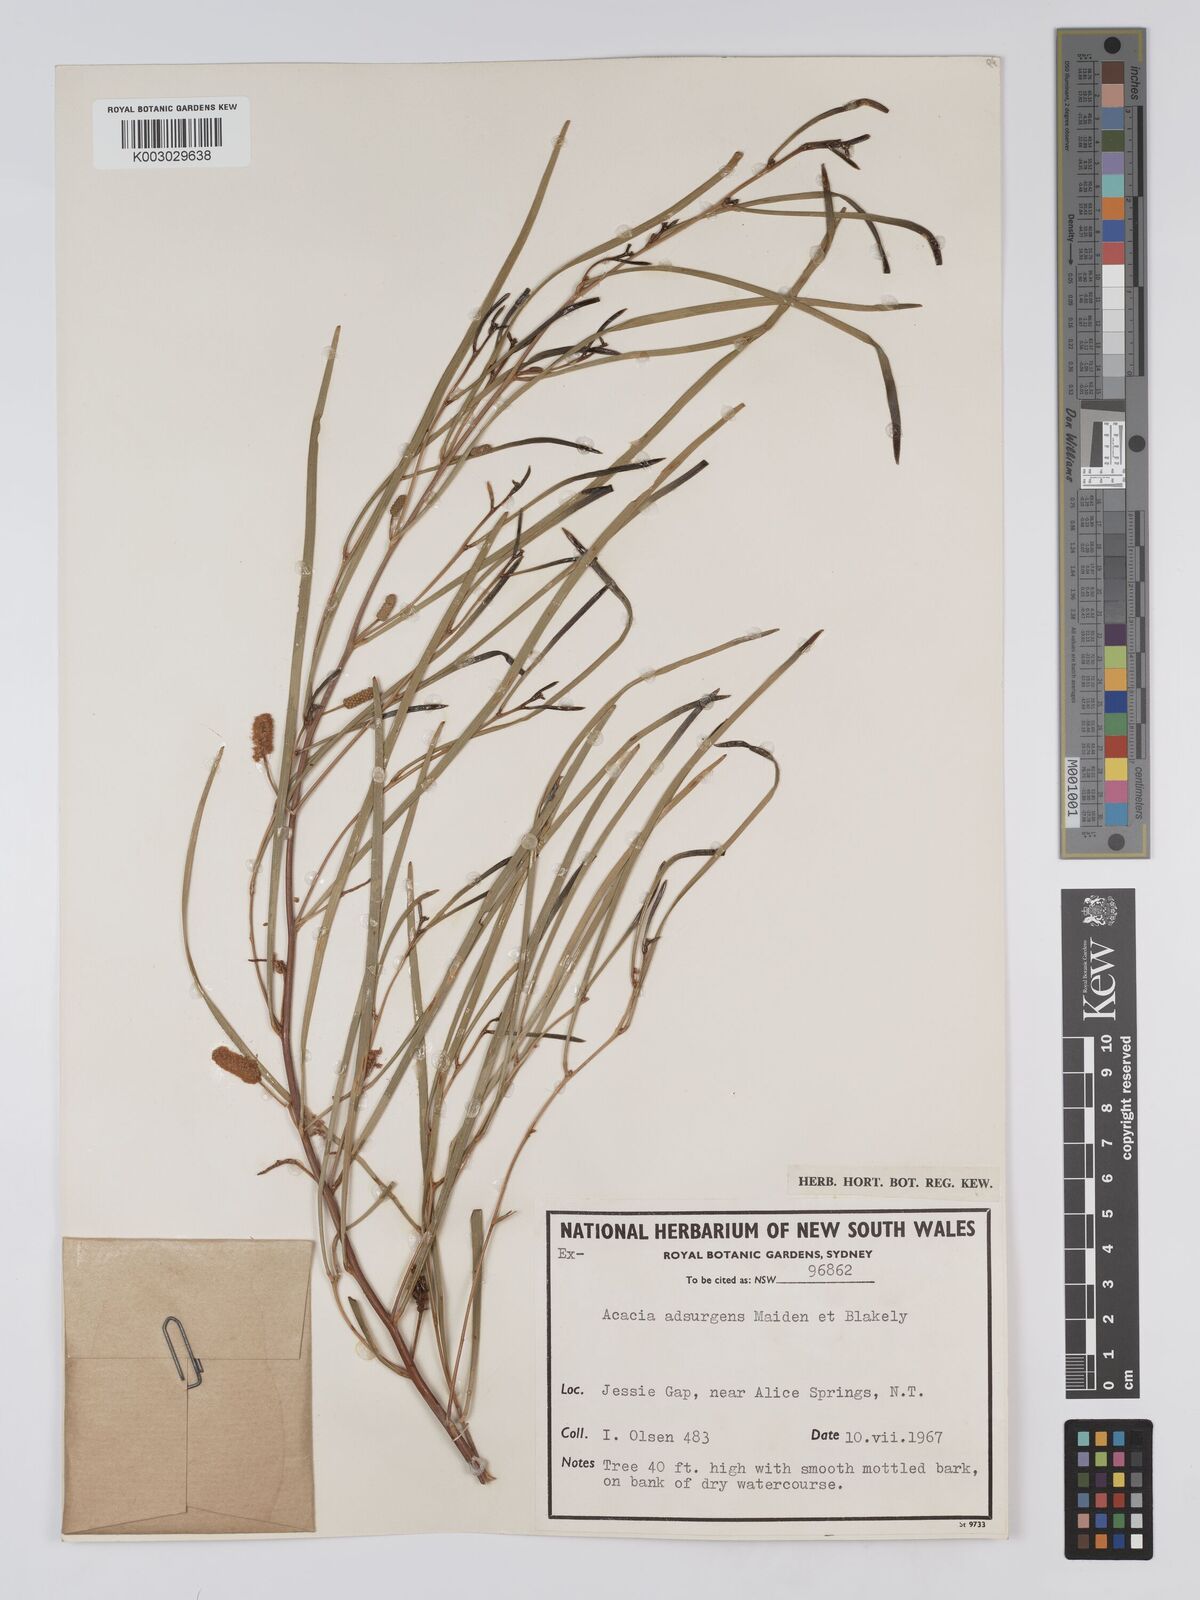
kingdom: Plantae
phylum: Tracheophyta
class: Magnoliopsida
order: Fabales
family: Fabaceae
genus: Acacia
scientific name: Acacia adsurgens
